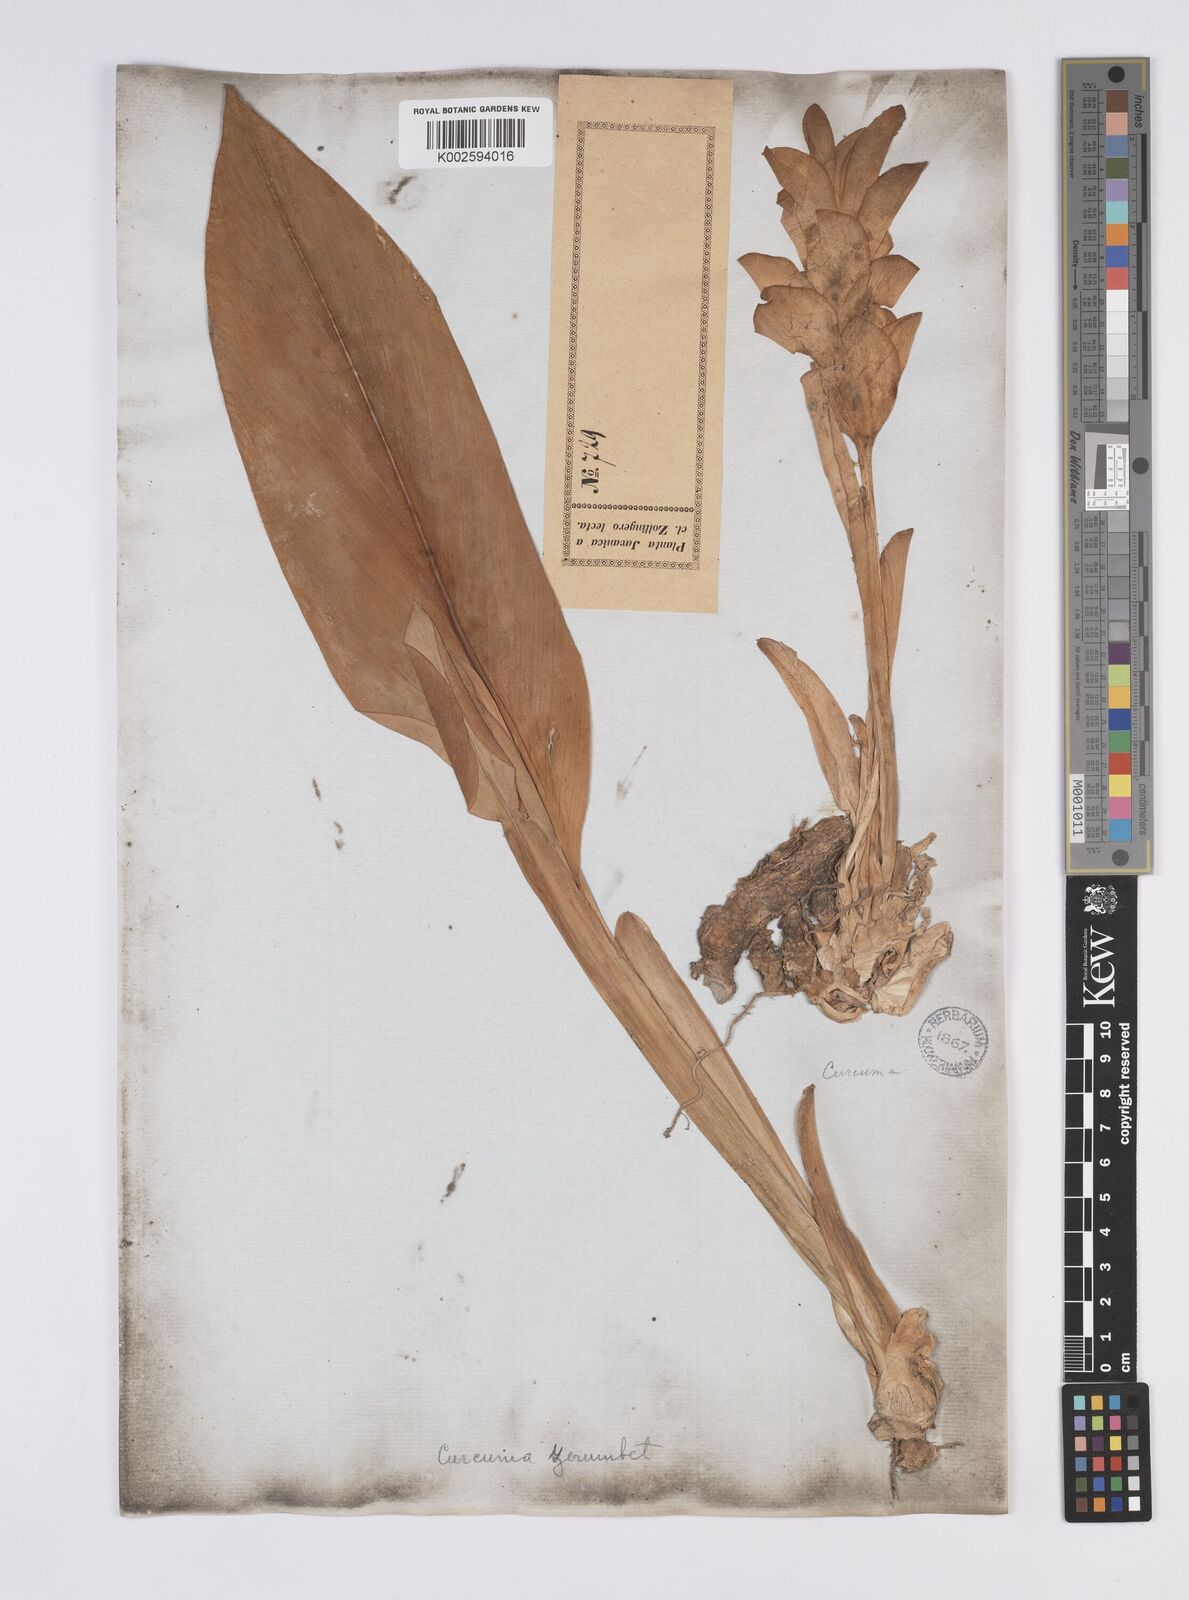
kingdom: Plantae
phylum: Tracheophyta
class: Liliopsida
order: Zingiberales
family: Zingiberaceae
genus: Curcuma
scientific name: Curcuma zedoaria
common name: Zedoary
